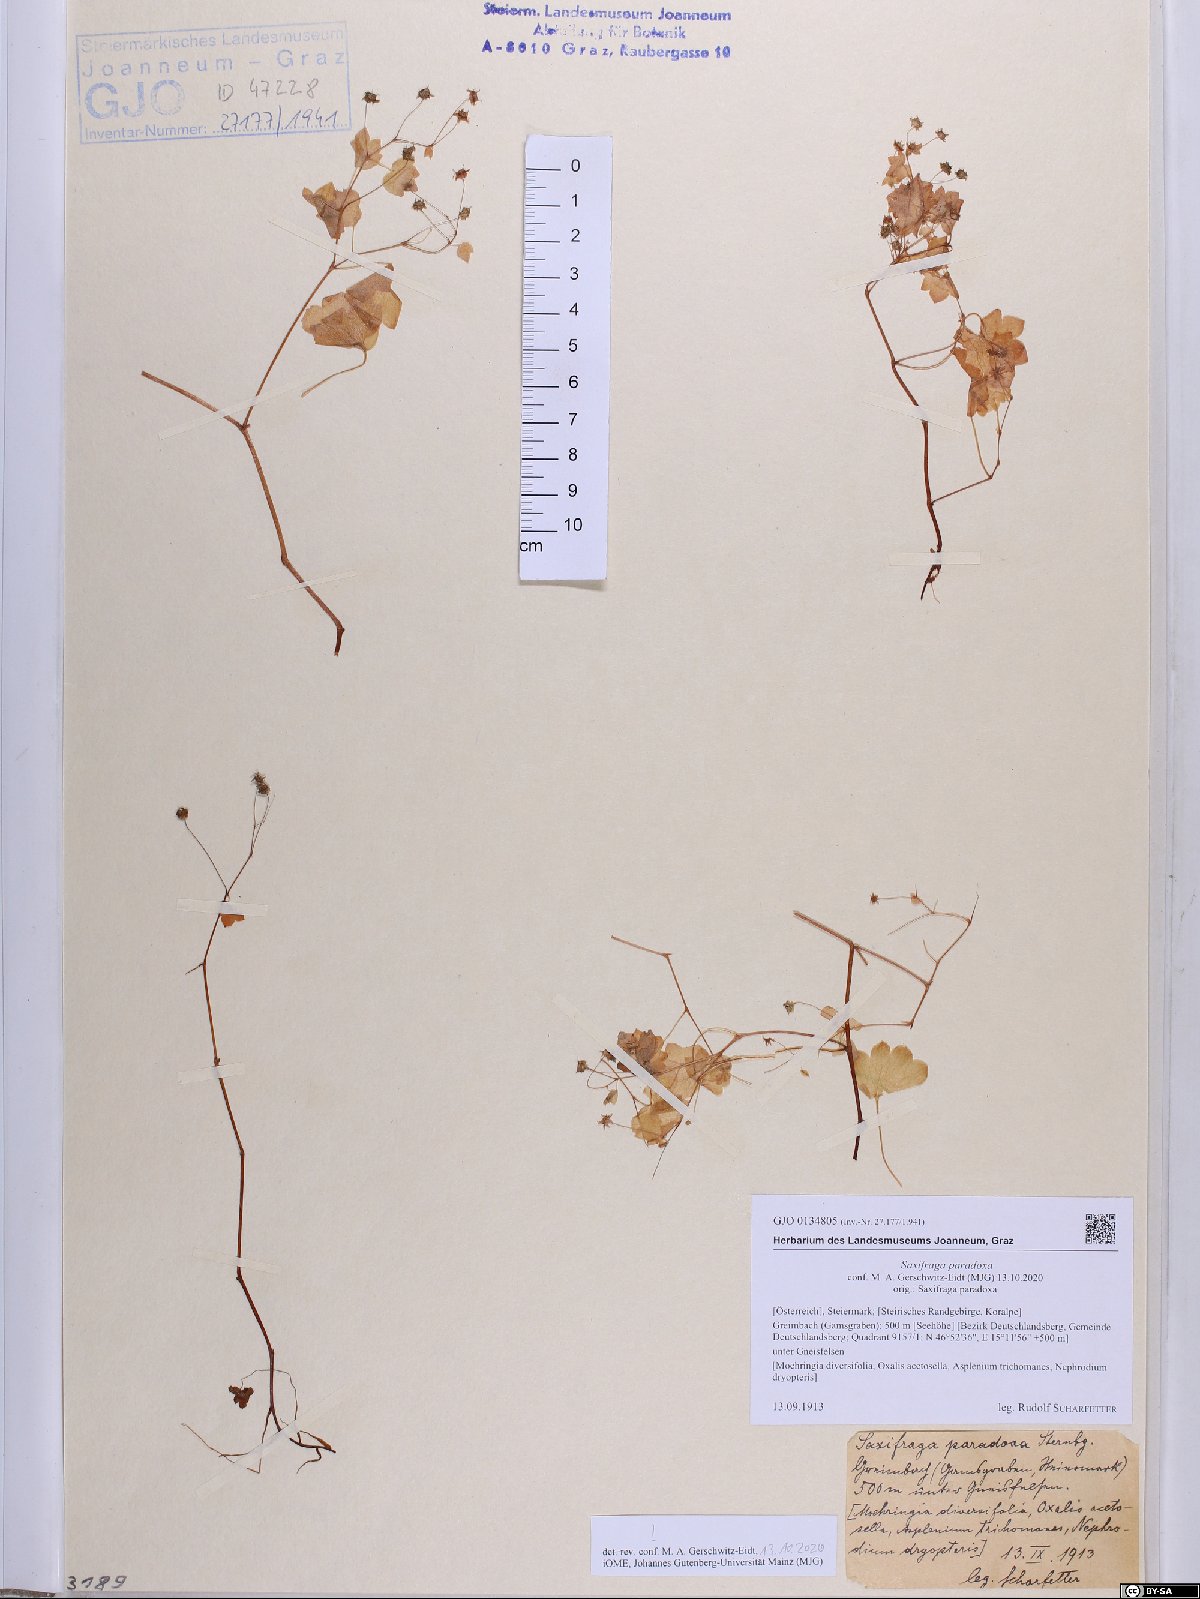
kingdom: Plantae
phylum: Tracheophyta
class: Magnoliopsida
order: Saxifragales
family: Saxifragaceae
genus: Saxifraga
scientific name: Saxifraga paradoxa
